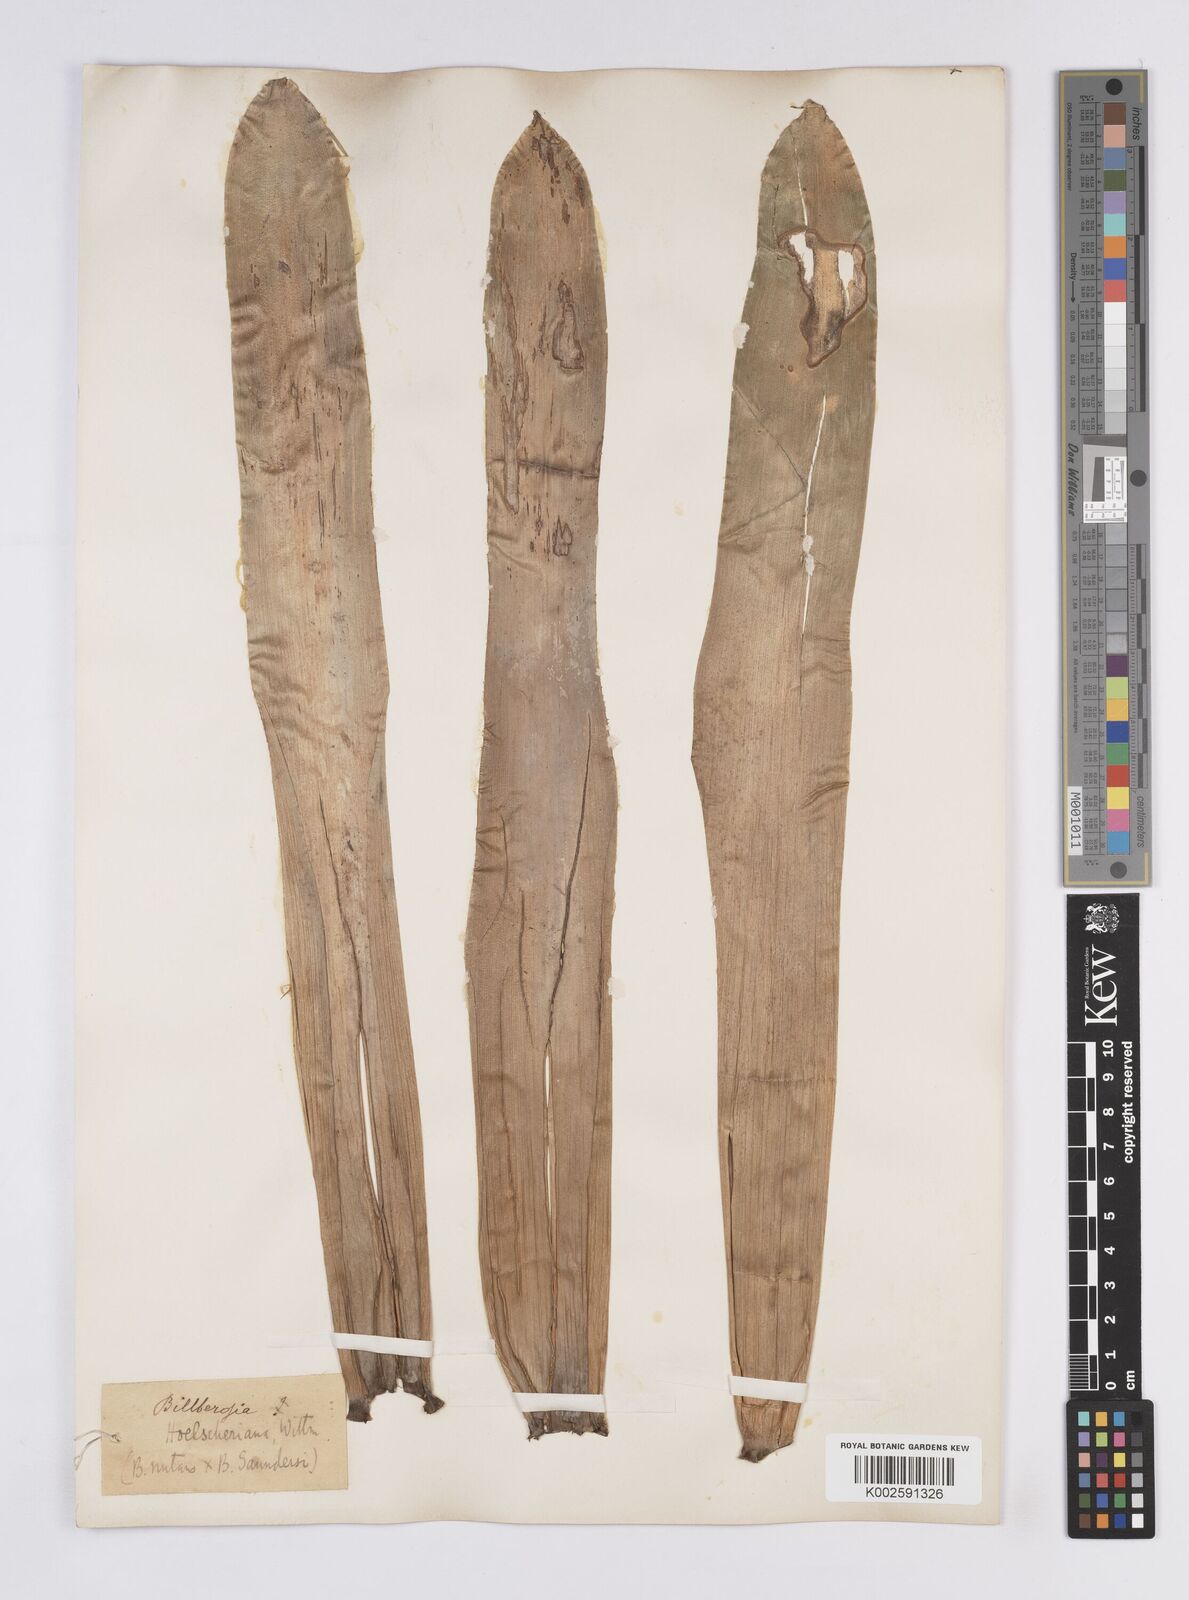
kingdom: Plantae
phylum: Tracheophyta
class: Liliopsida
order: Poales
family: Bromeliaceae
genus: Billbergia
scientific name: Billbergia
